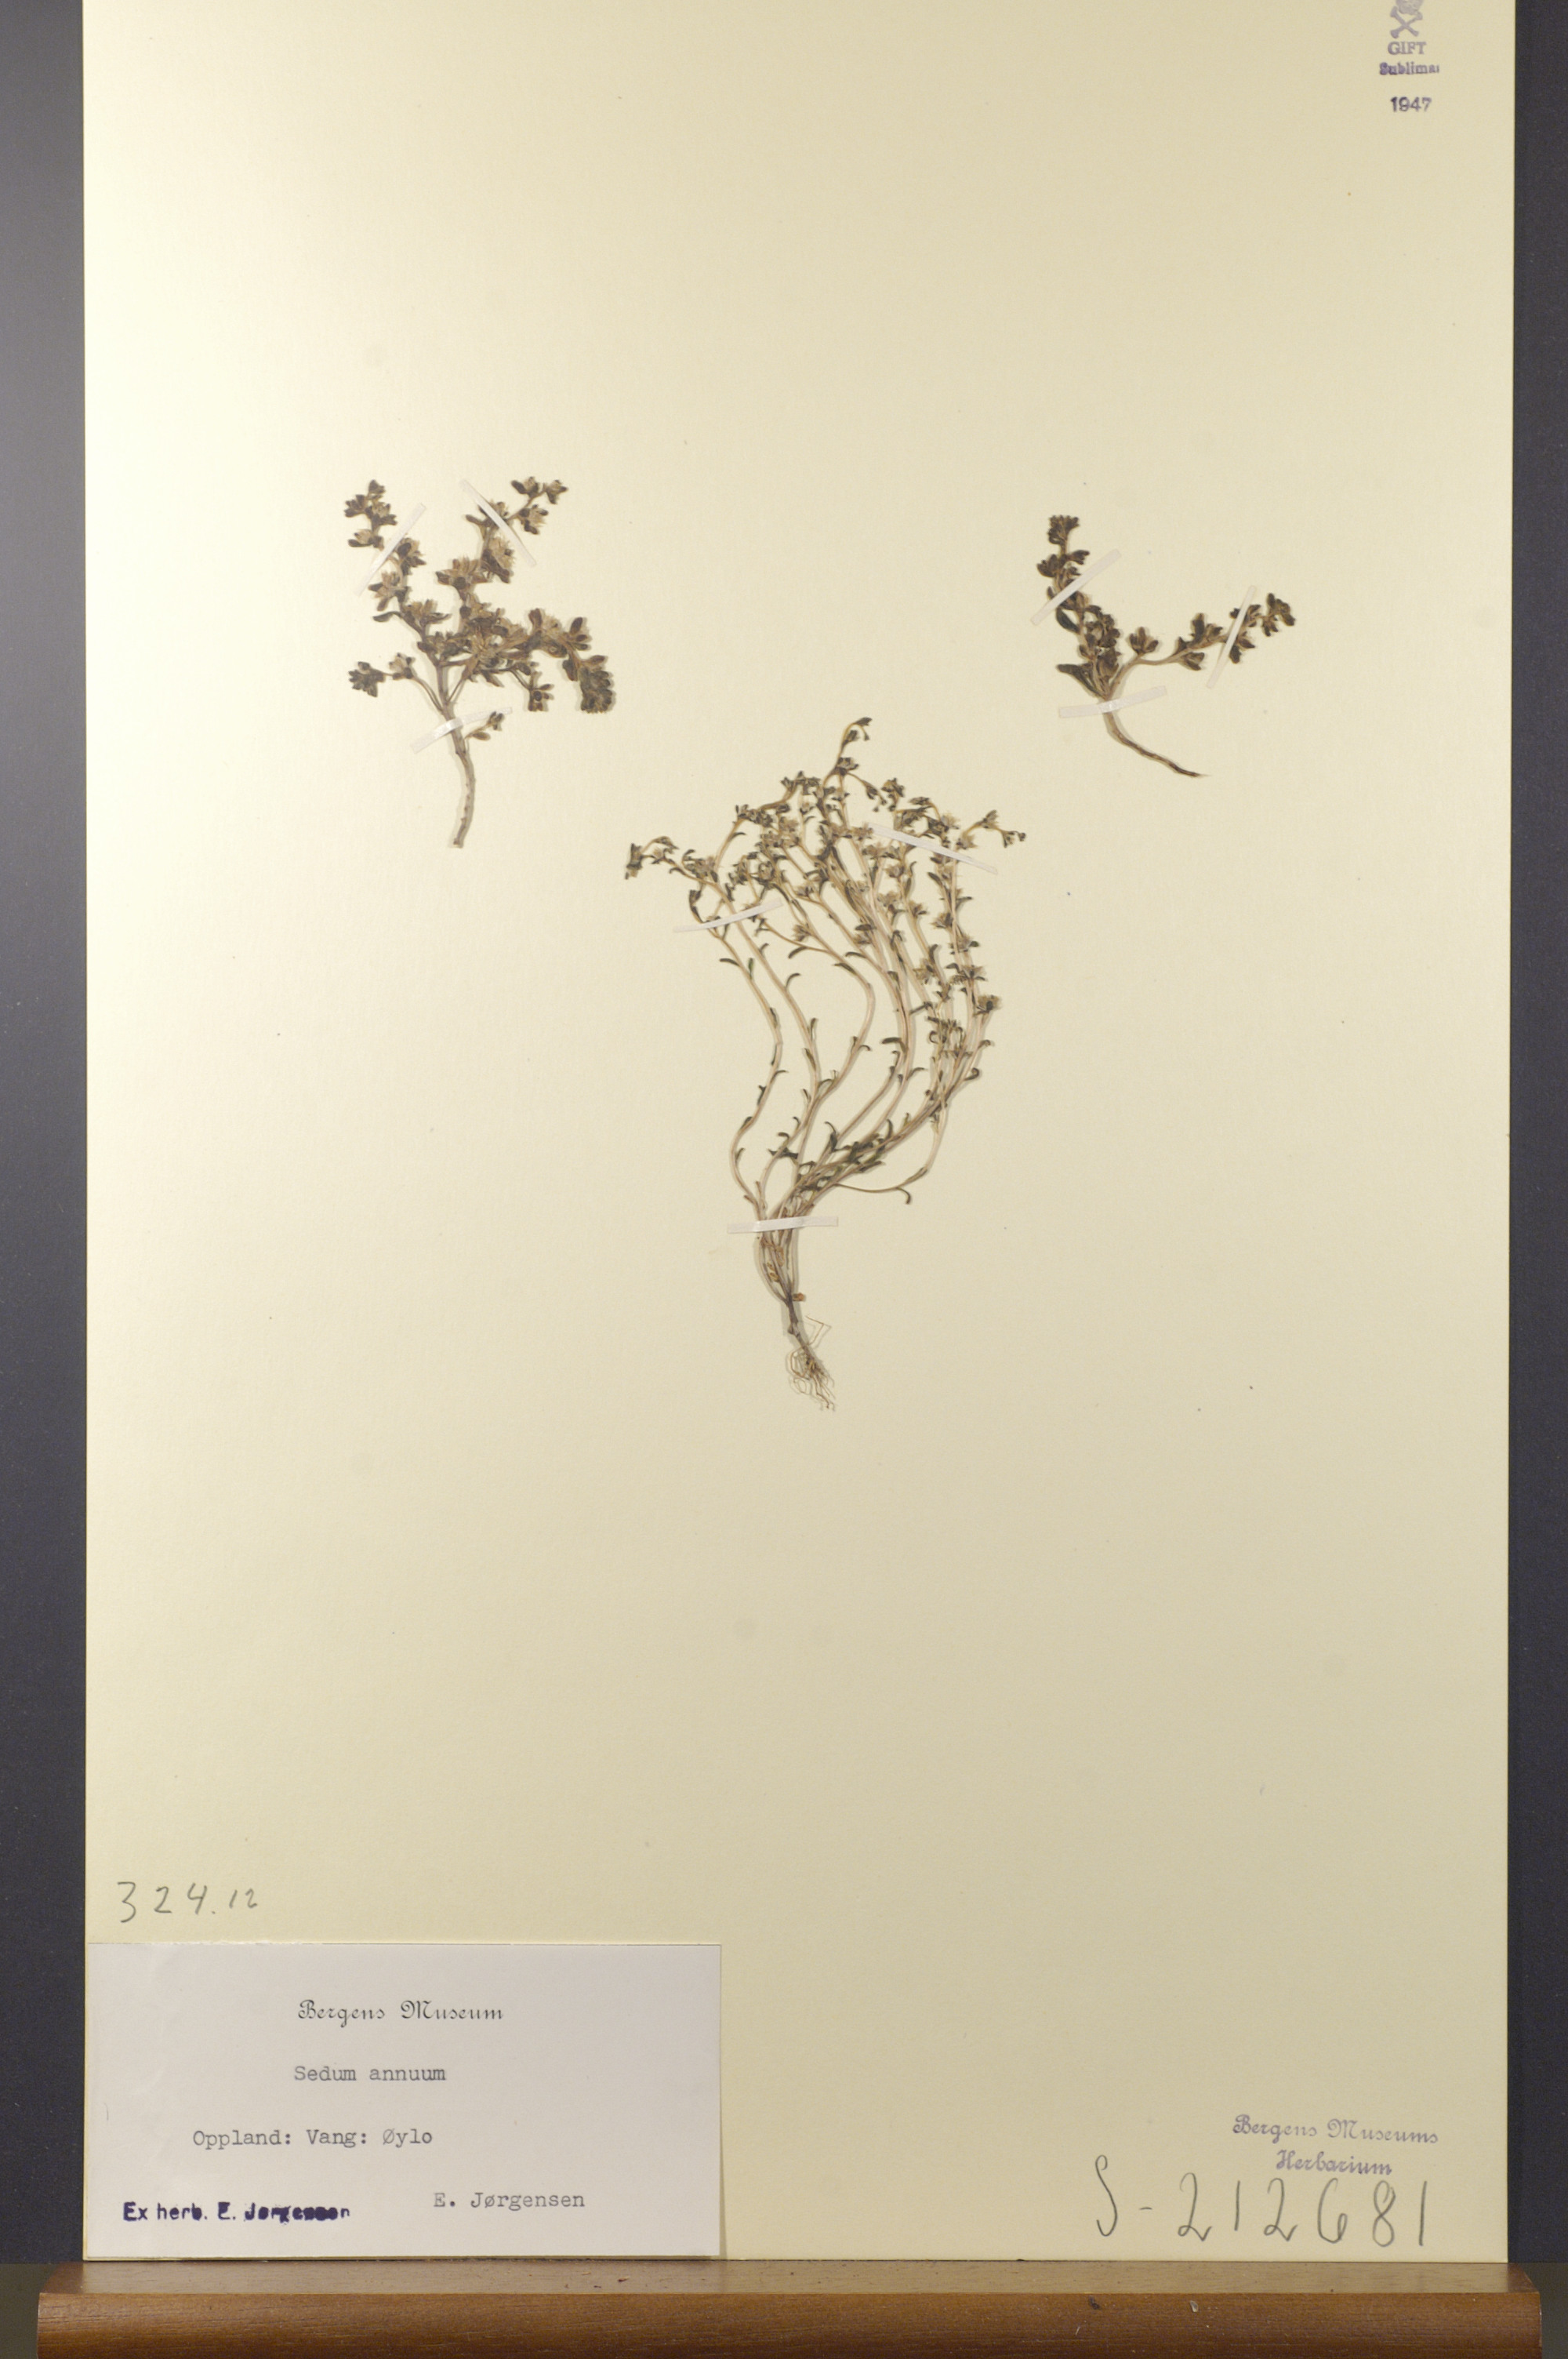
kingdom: Plantae
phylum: Tracheophyta
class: Magnoliopsida
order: Saxifragales
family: Crassulaceae
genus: Sedum
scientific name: Sedum annuum
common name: Annual stonecrop
